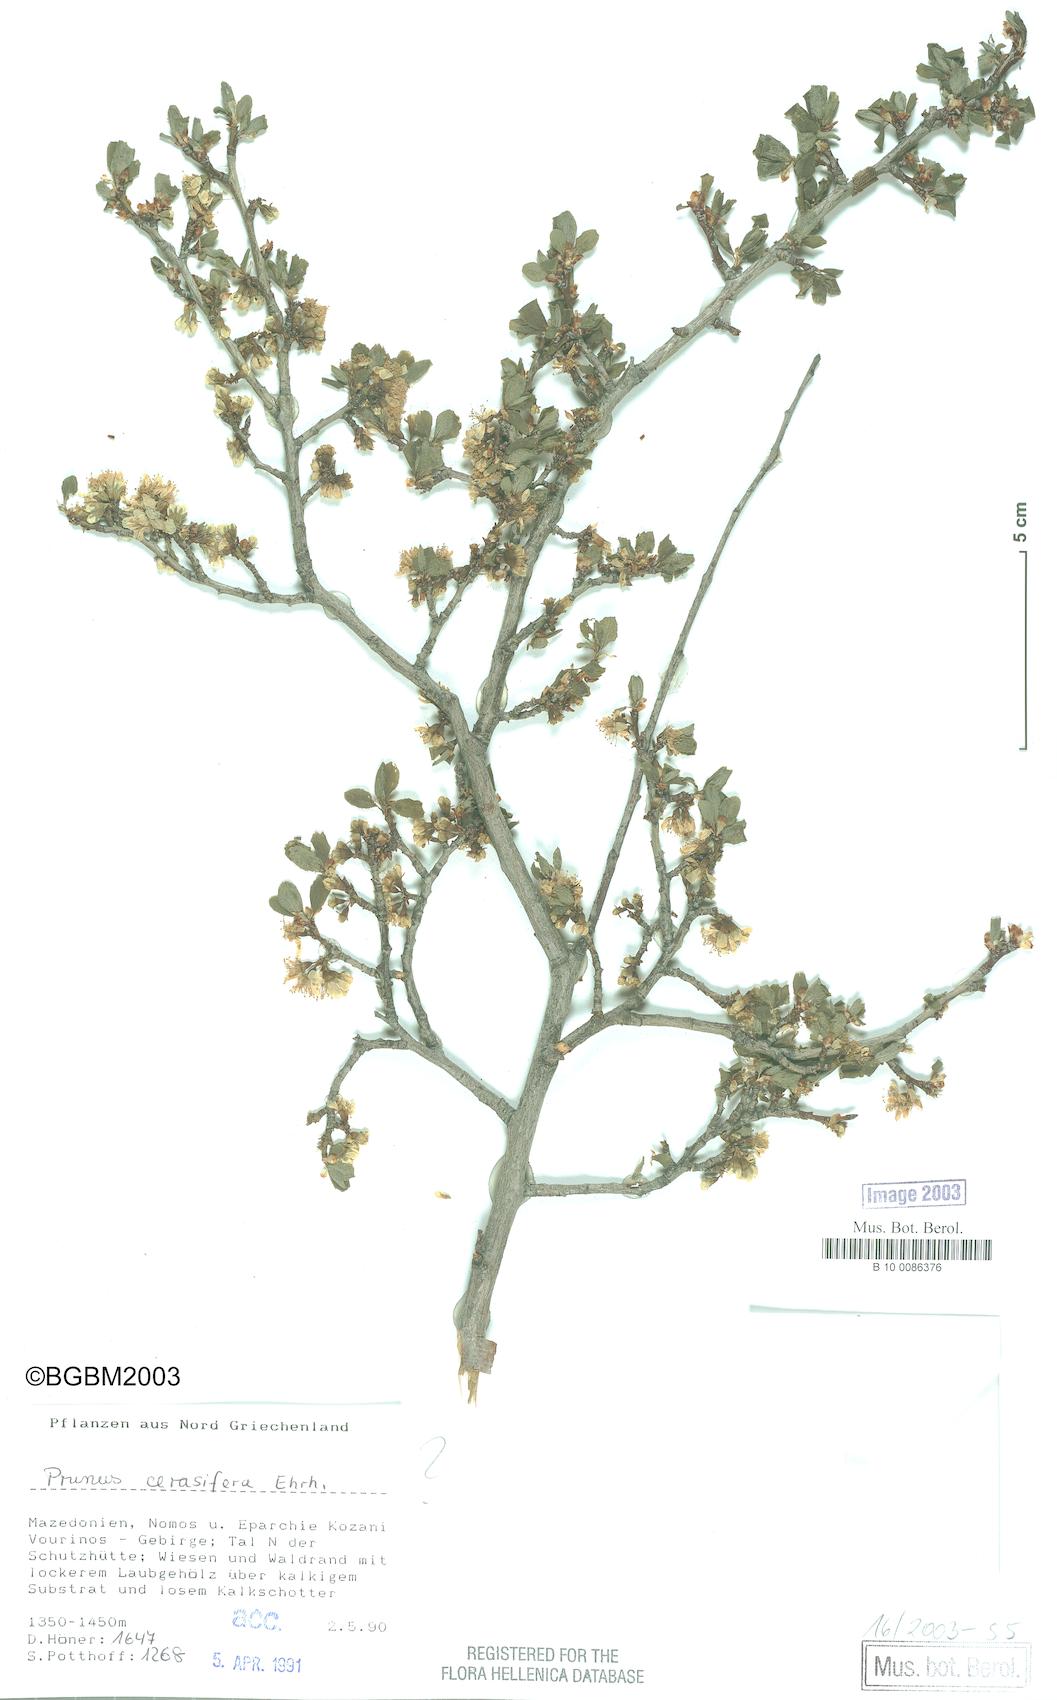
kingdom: Plantae
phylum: Tracheophyta
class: Magnoliopsida
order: Rosales
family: Rosaceae
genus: Prunus
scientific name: Prunus cocomilia
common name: Italian plum
